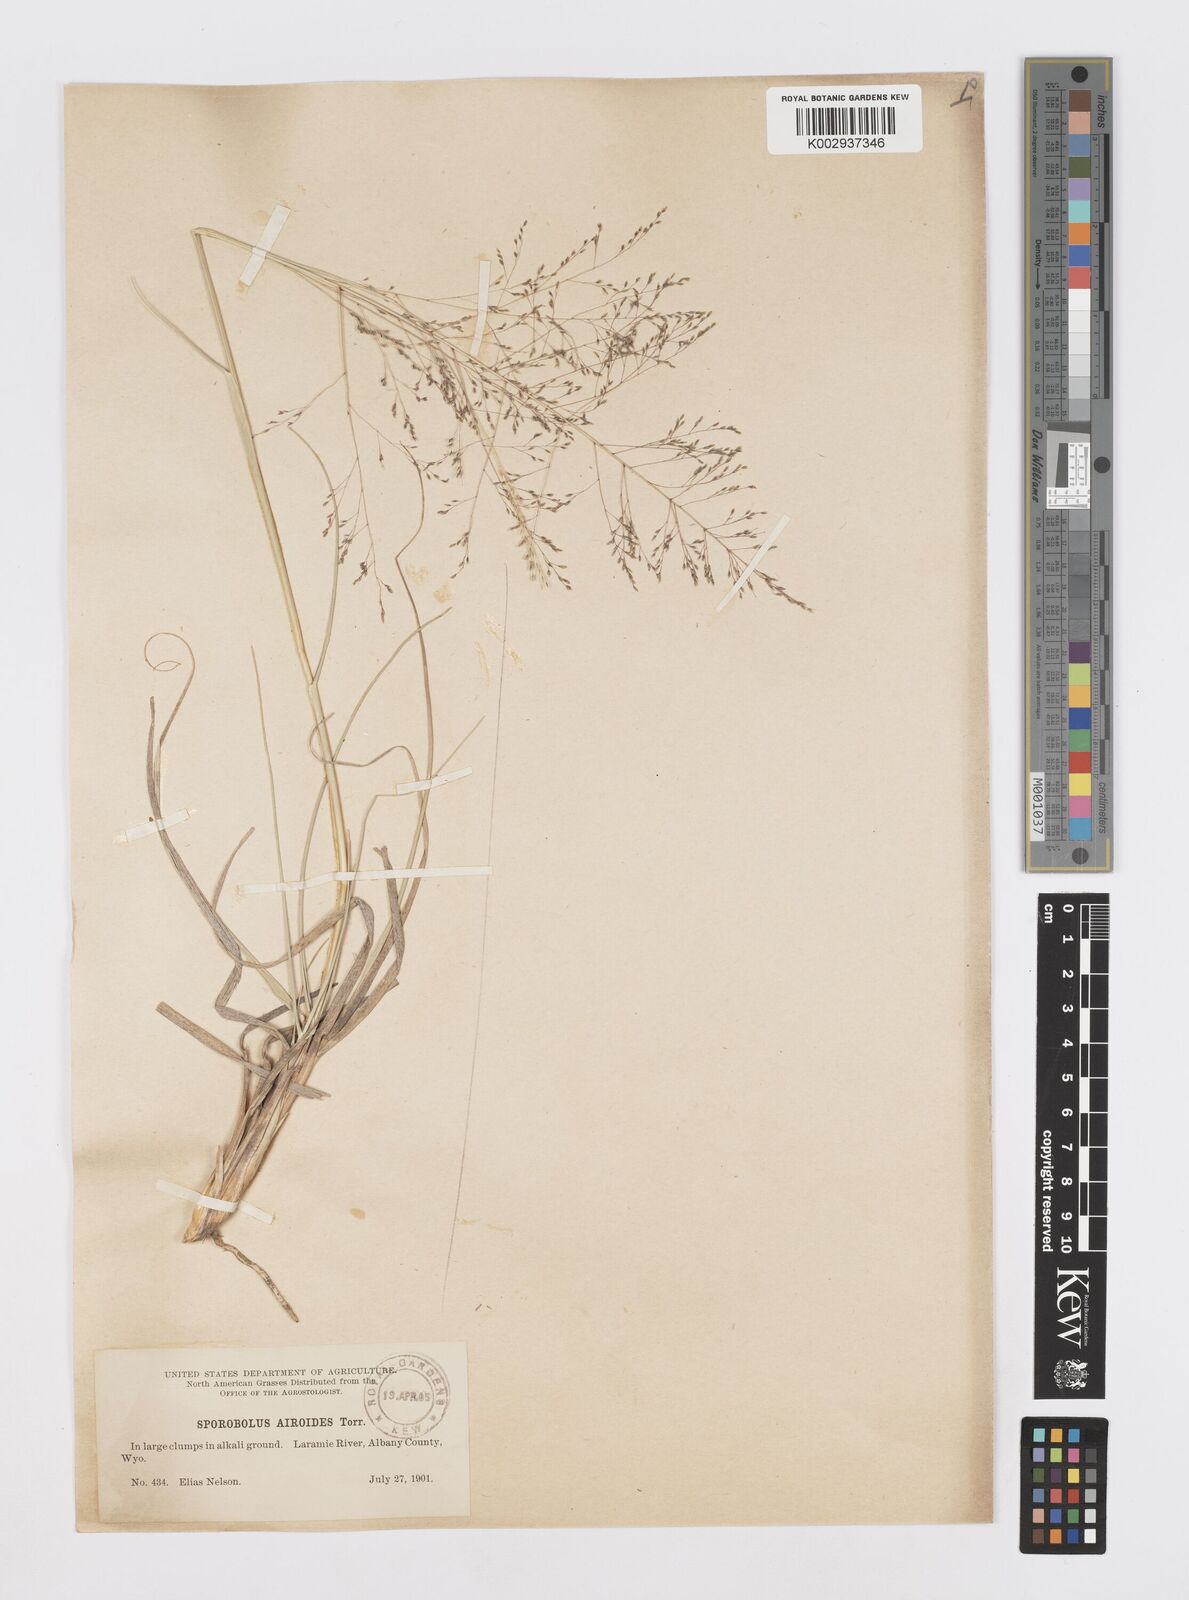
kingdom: Plantae
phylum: Tracheophyta
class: Liliopsida
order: Poales
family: Poaceae
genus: Sporobolus
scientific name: Sporobolus airoides
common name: Alkali sacaton
